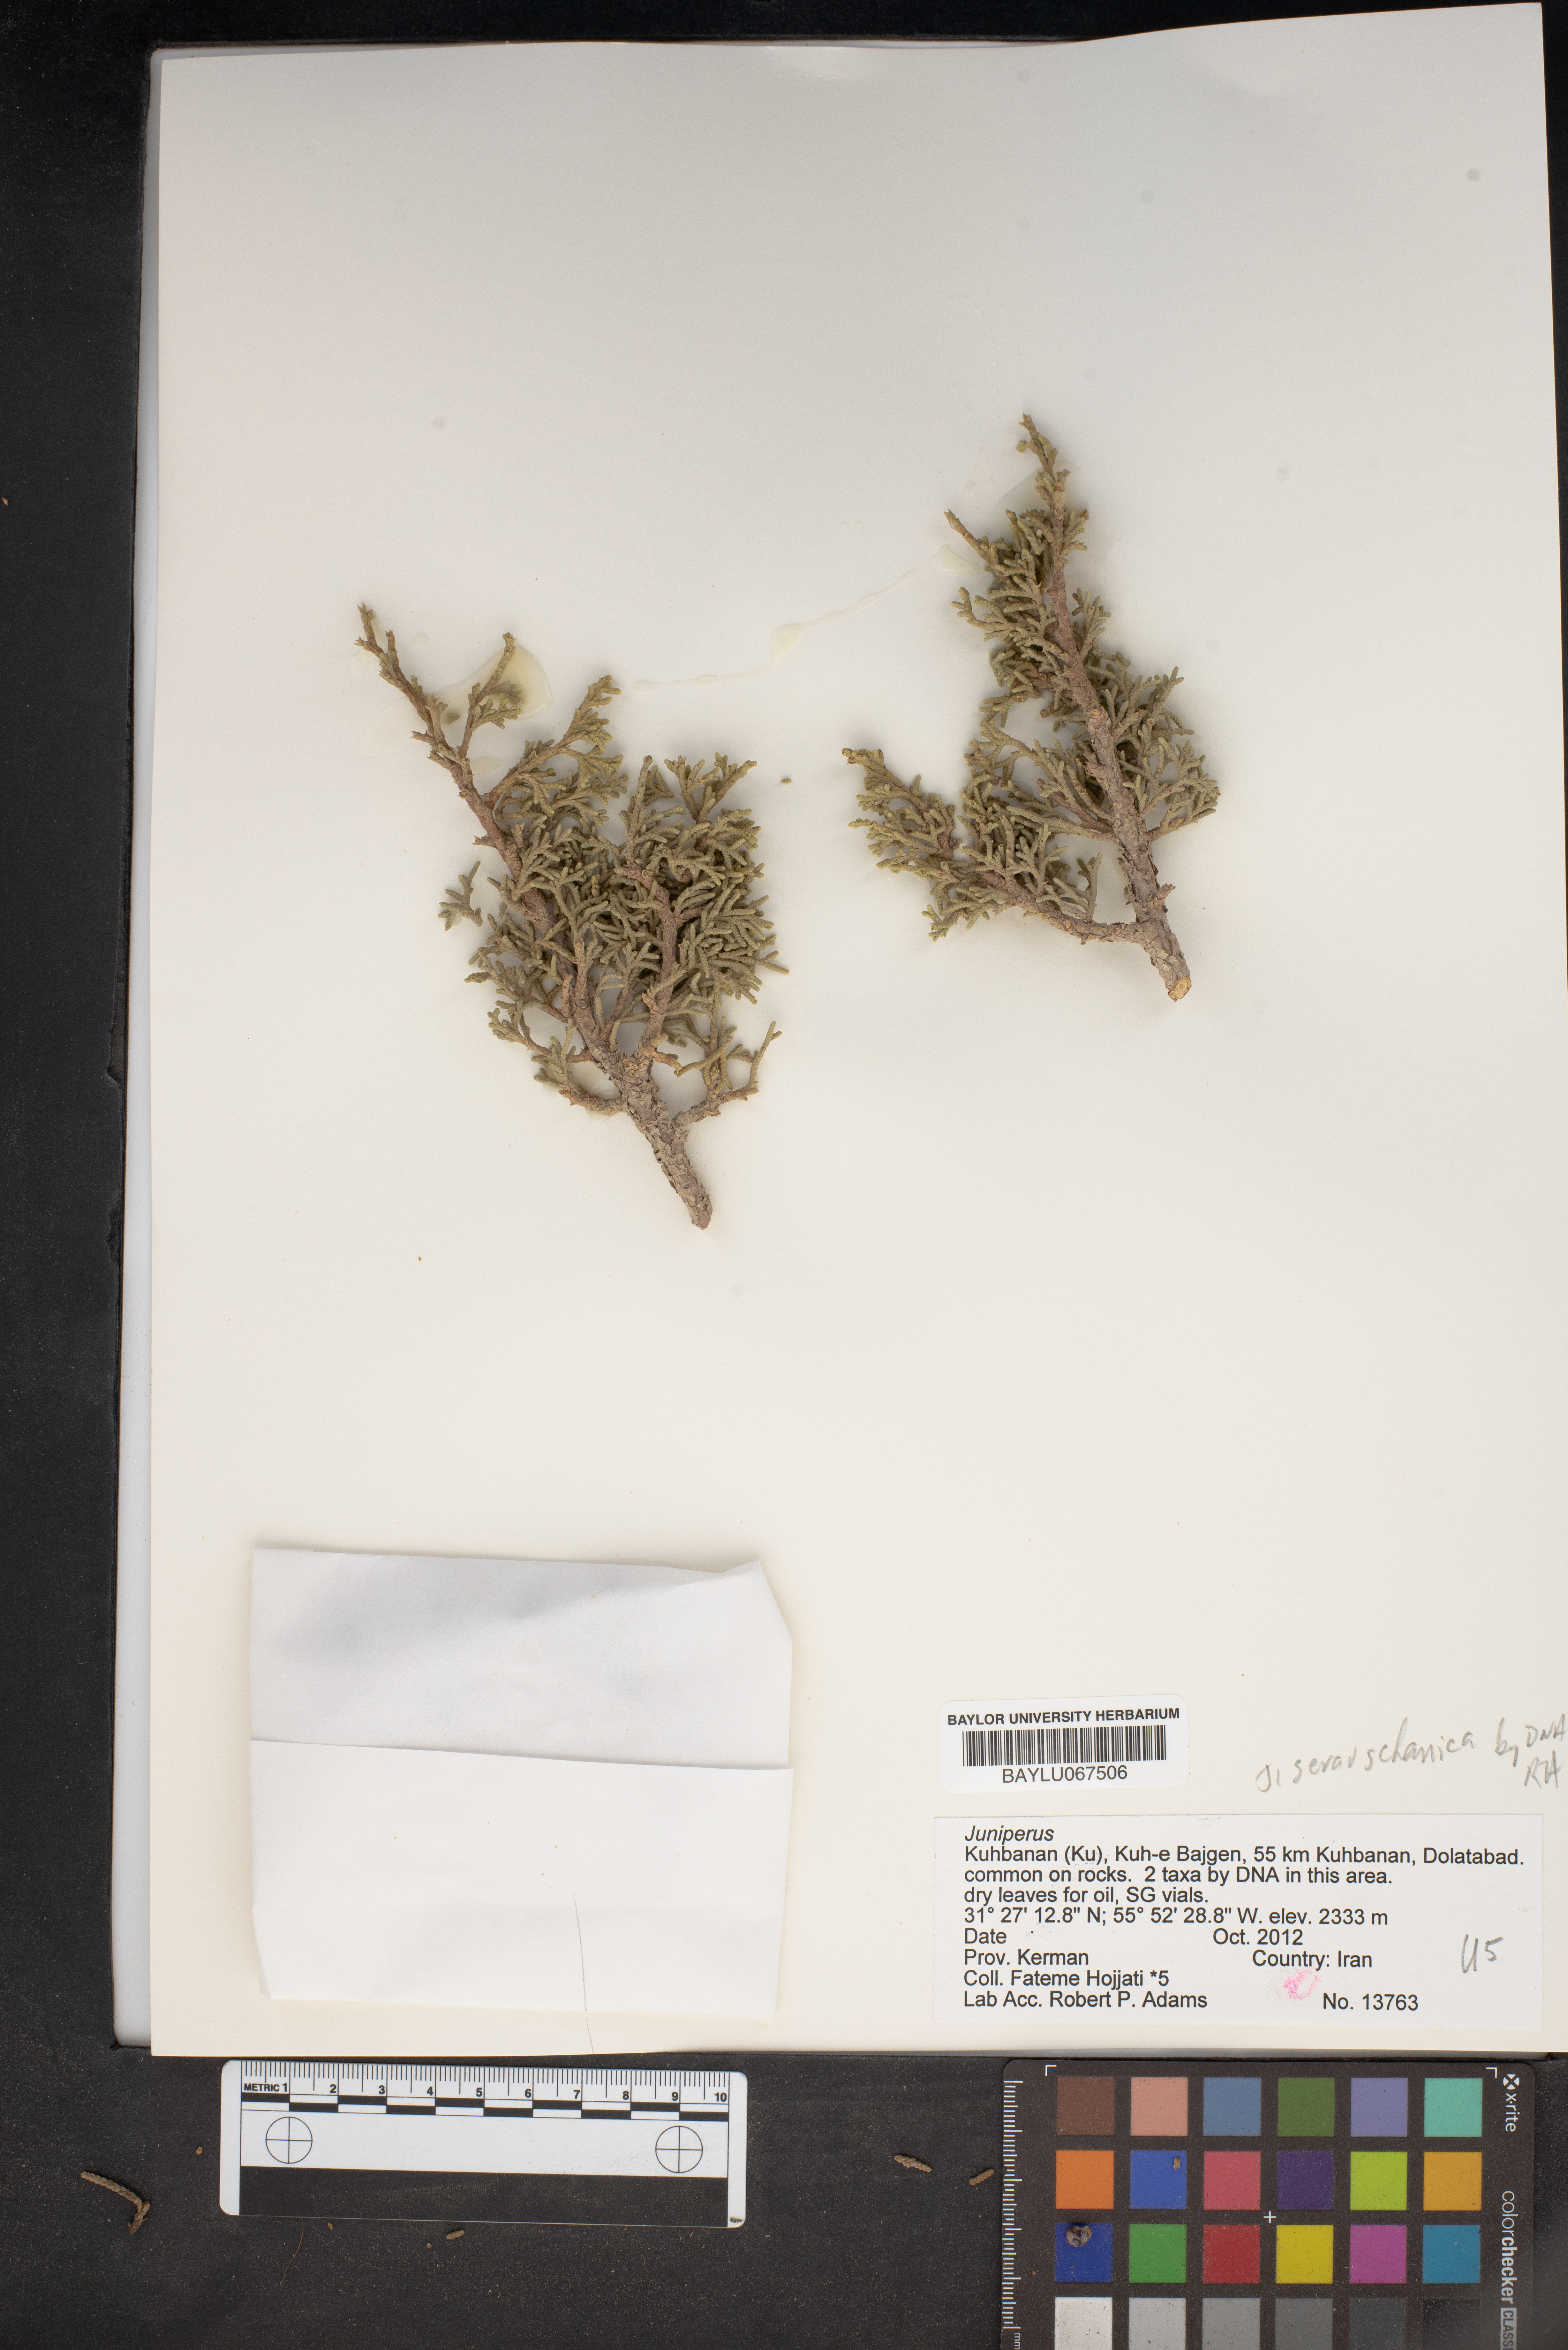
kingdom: Plantae
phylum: Tracheophyta
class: Pinopsida
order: Pinales
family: Cupressaceae
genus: Juniperus
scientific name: Juniperus excelsa
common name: Crimean juniper
